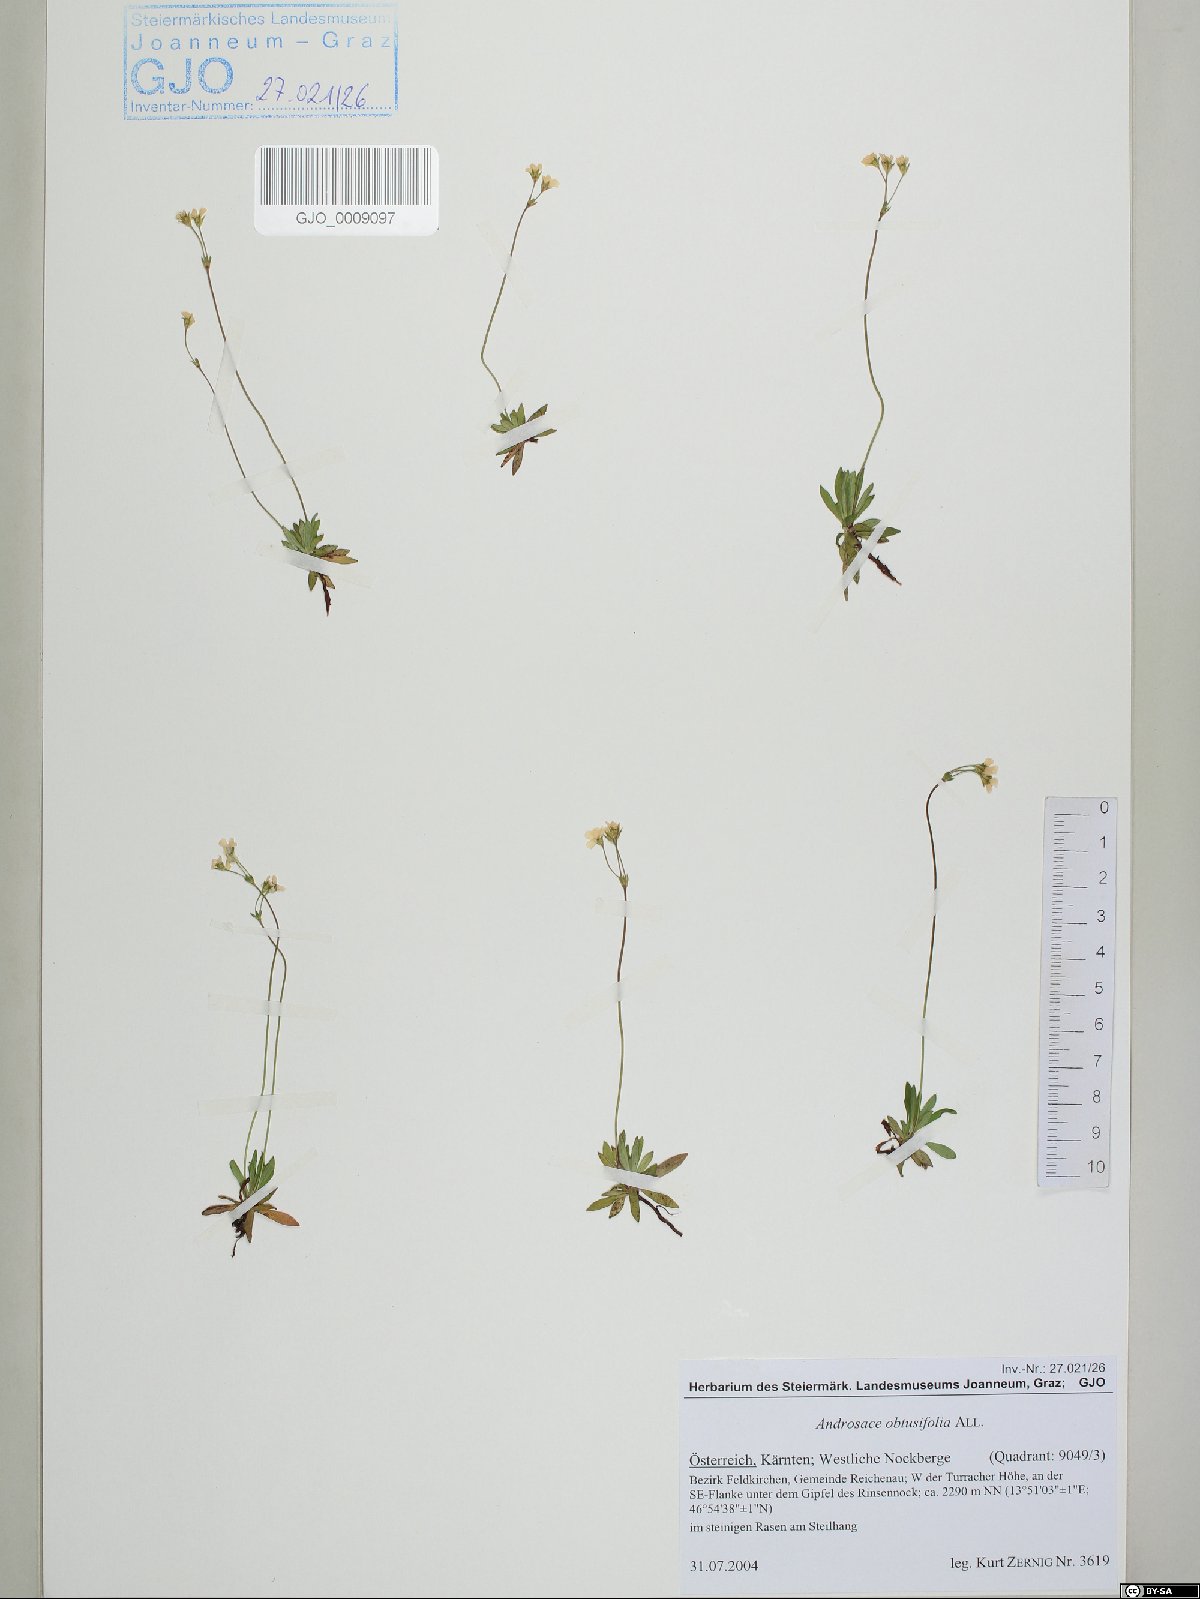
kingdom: Plantae
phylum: Tracheophyta
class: Magnoliopsida
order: Ericales
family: Primulaceae
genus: Androsace
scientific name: Androsace obtusifolia
